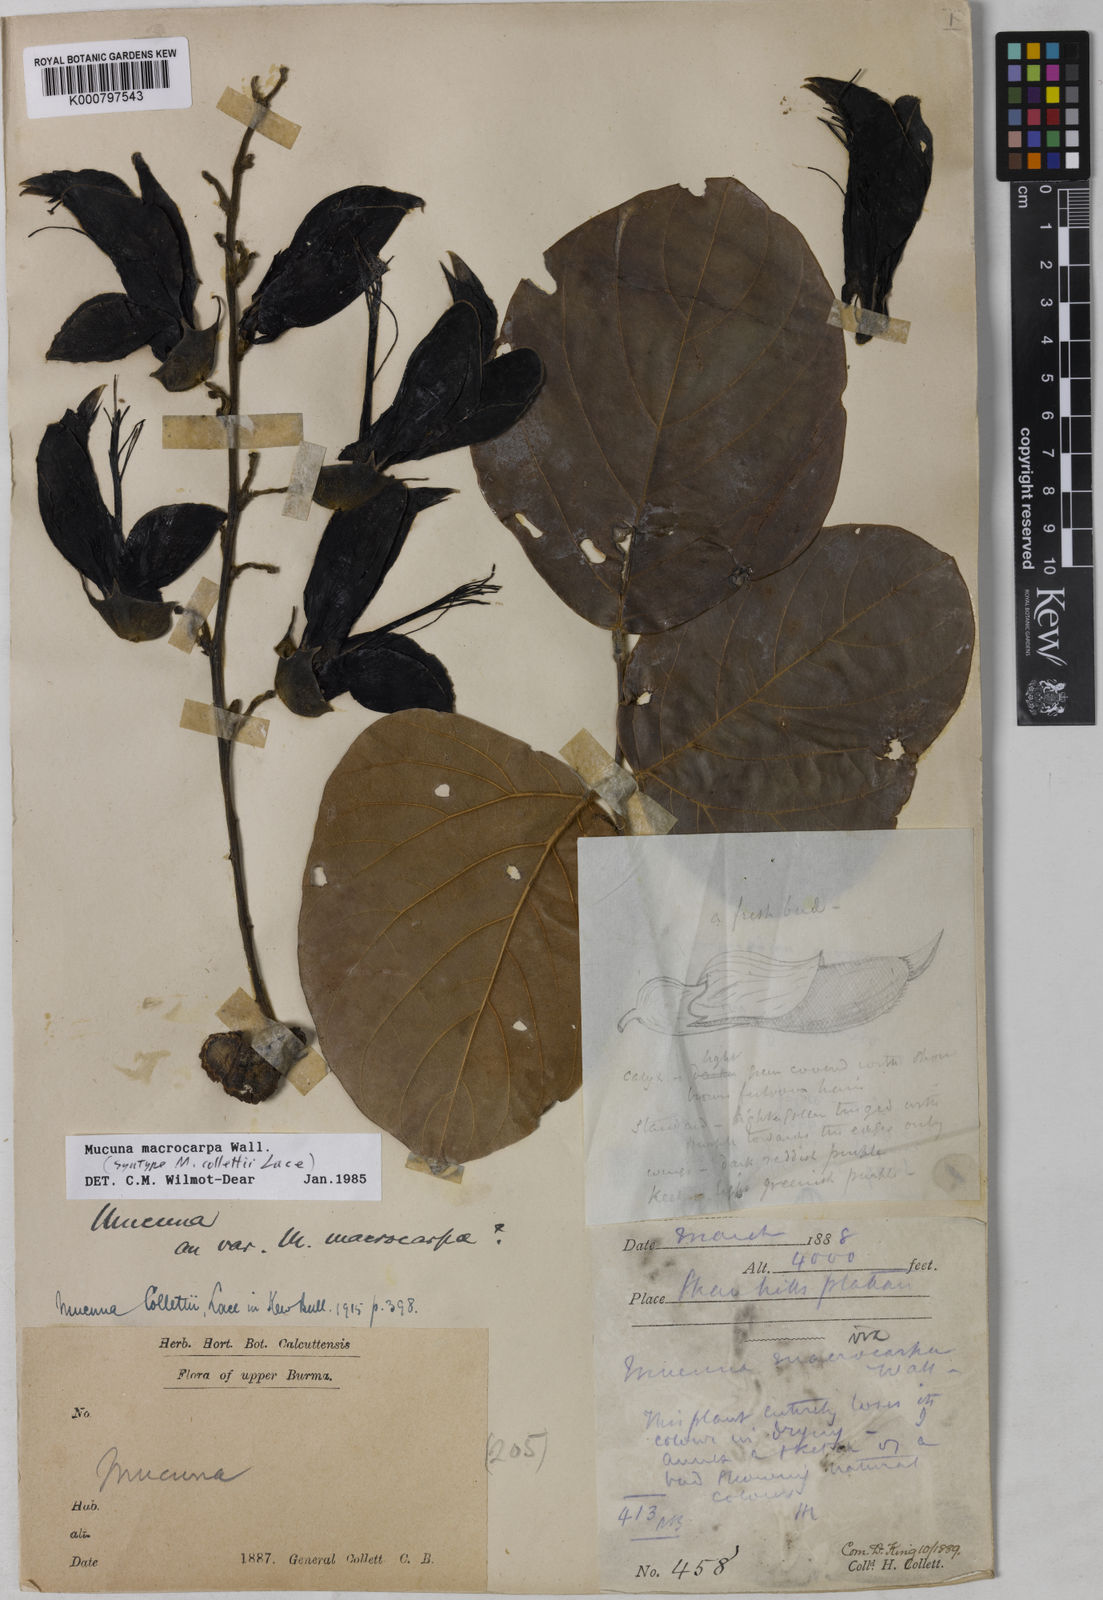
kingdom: Plantae
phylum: Tracheophyta
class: Magnoliopsida
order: Fabales
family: Fabaceae
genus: Mucuna
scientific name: Mucuna macrocarpa
